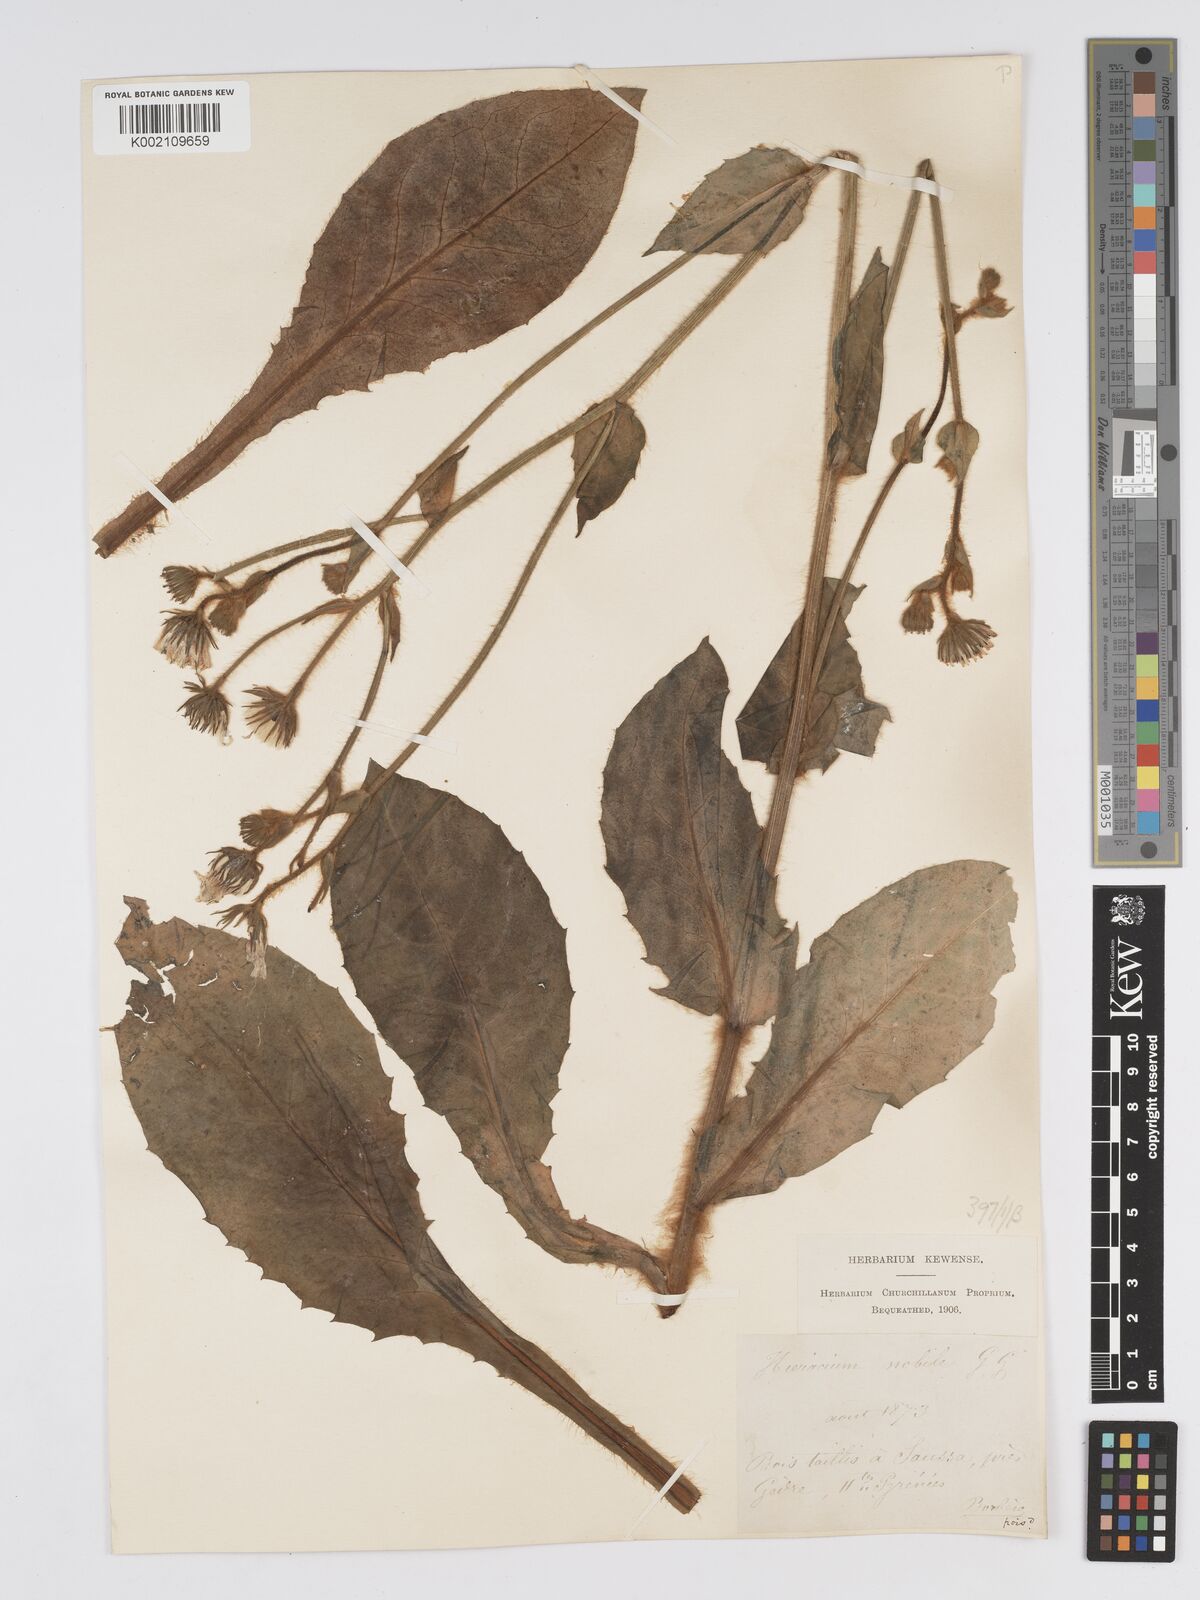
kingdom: Plantae
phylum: Tracheophyta
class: Magnoliopsida
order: Asterales
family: Asteraceae
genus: Hieracium
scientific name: Hieracium nobile
